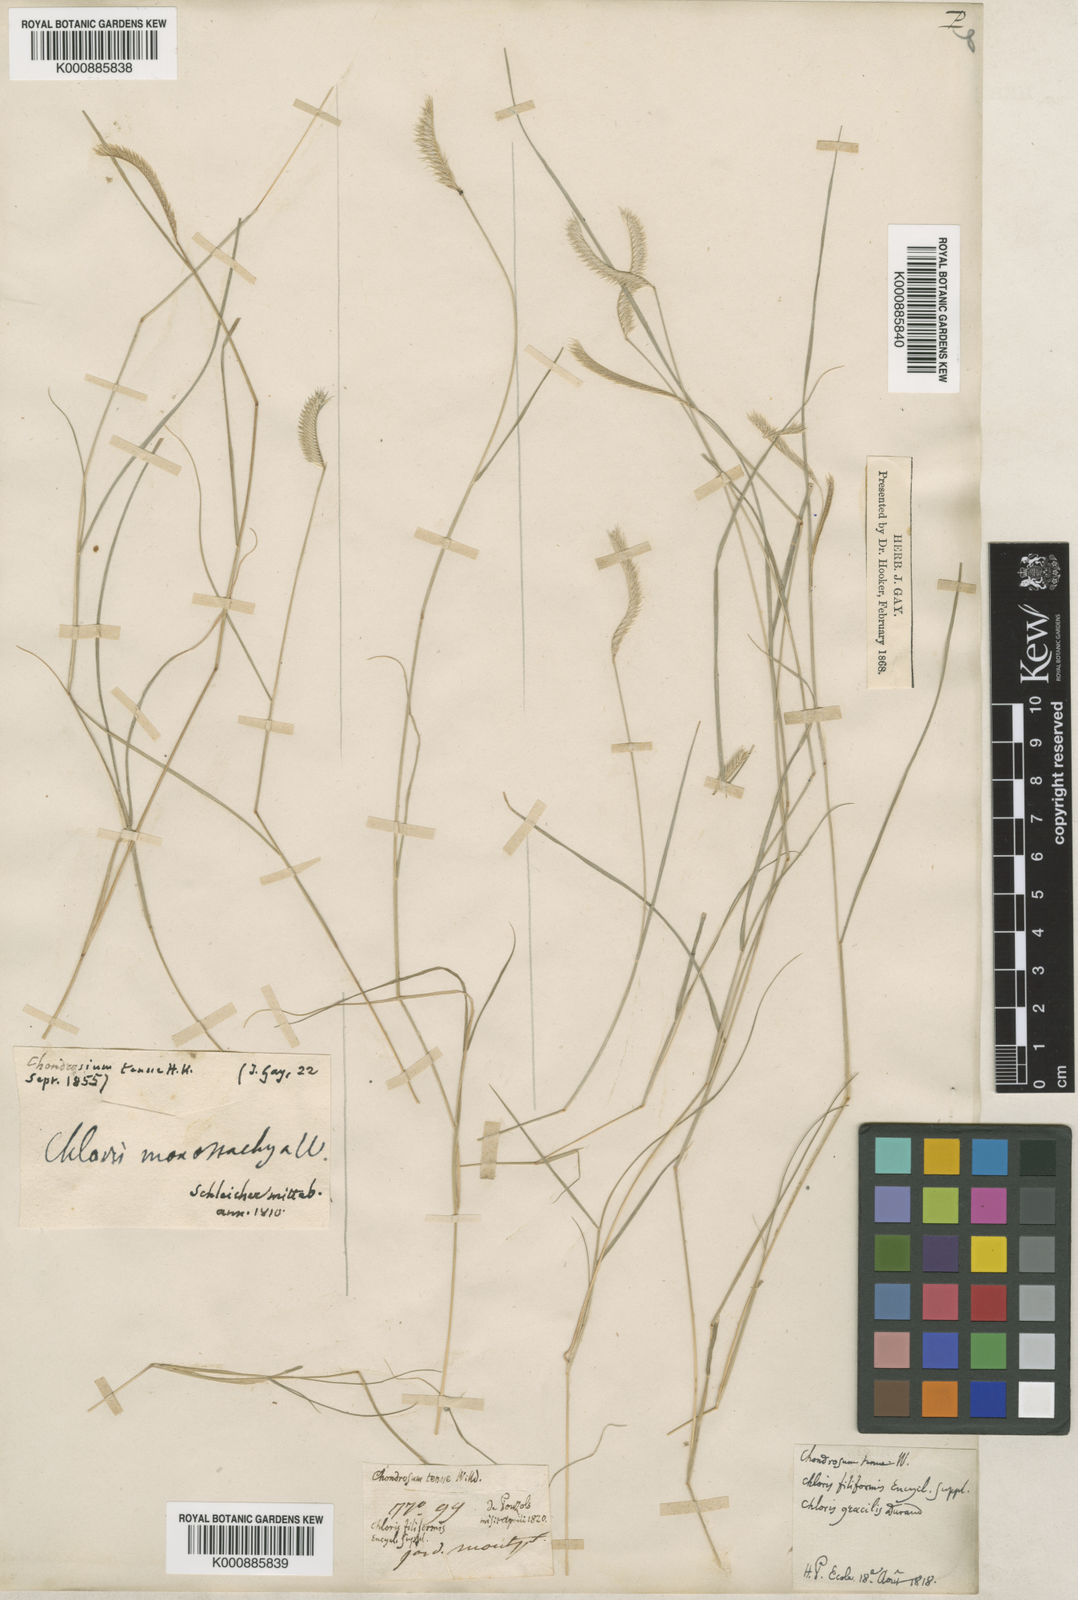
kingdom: Plantae
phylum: Tracheophyta
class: Liliopsida
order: Poales
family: Poaceae
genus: Bouteloua
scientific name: Bouteloua simplex
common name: Mat grama
